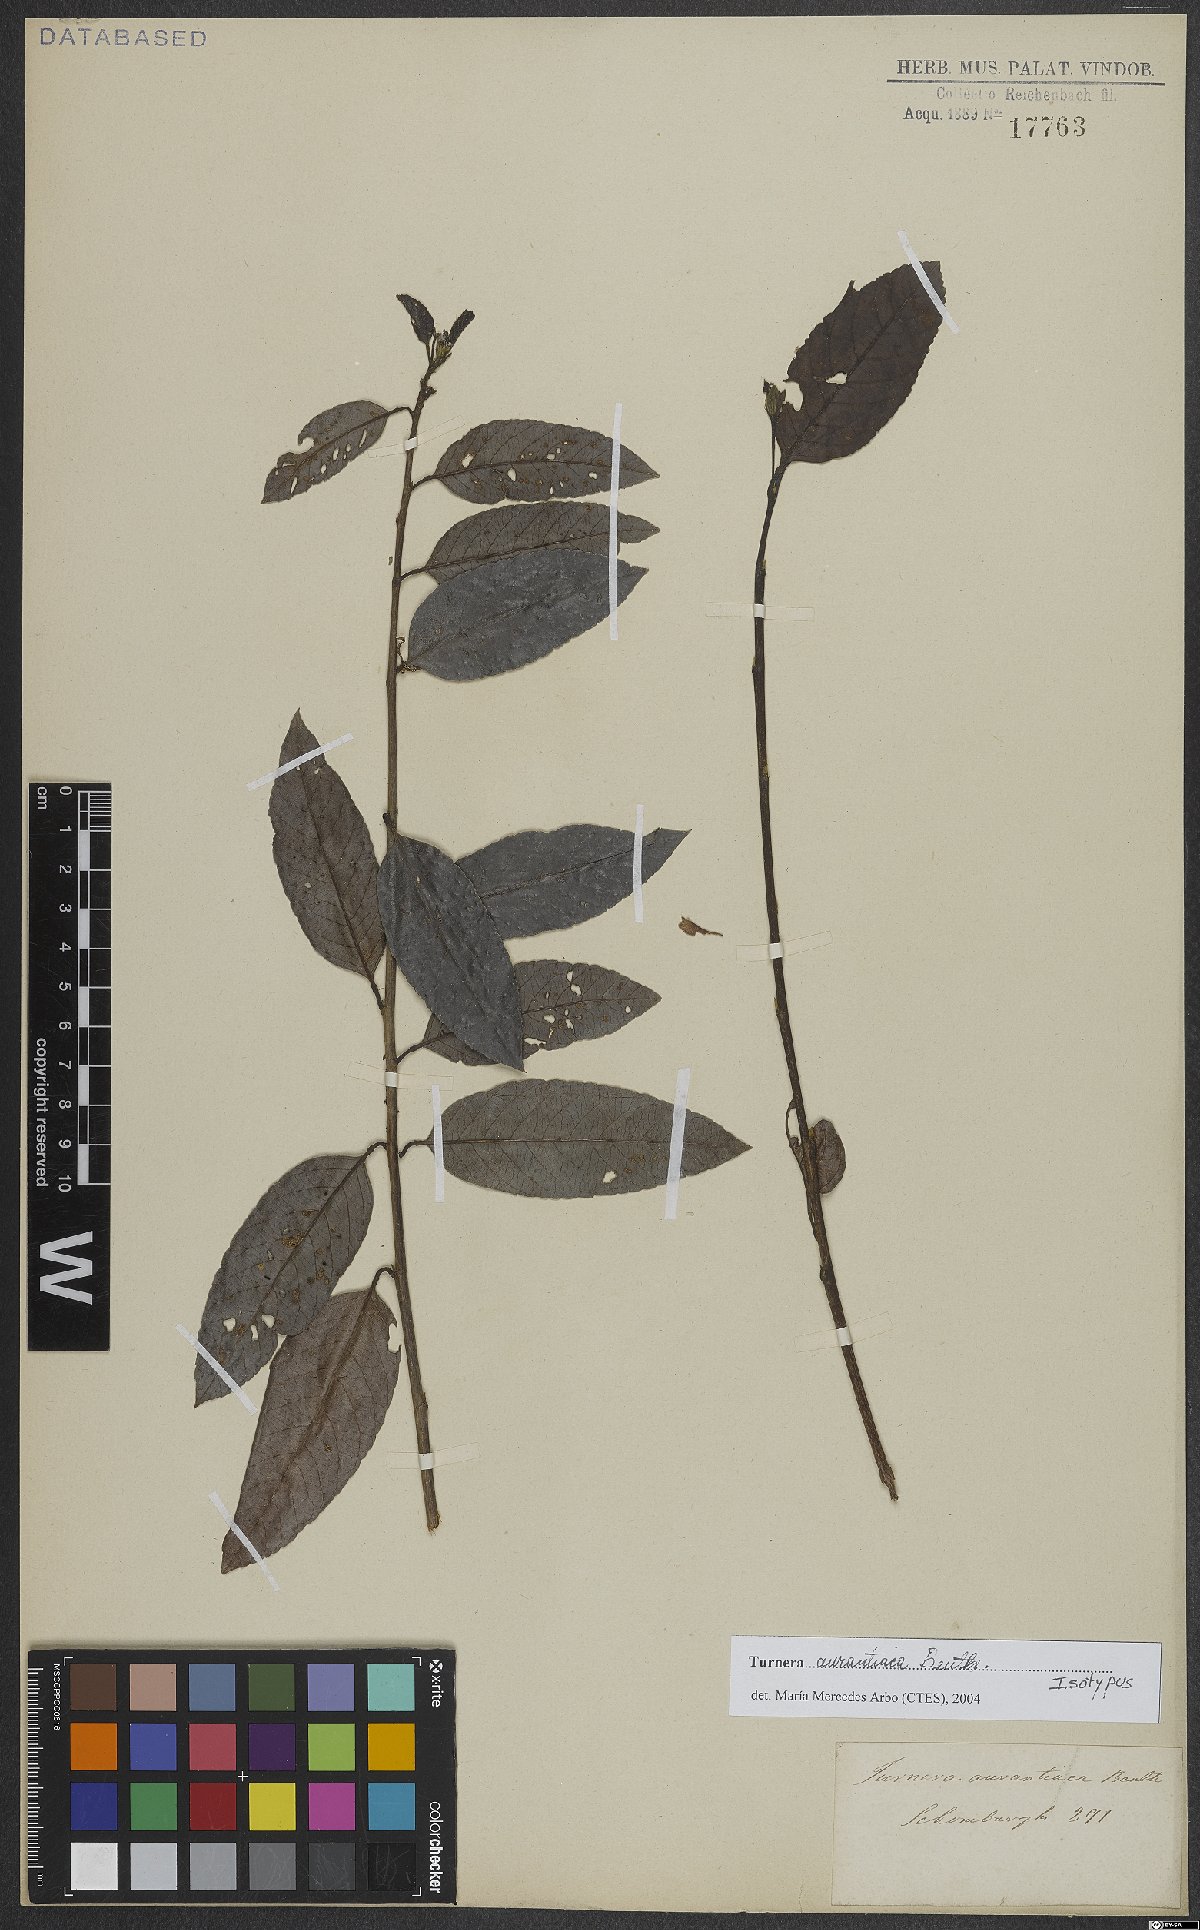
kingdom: Plantae
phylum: Tracheophyta
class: Magnoliopsida
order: Malpighiales
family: Turneraceae
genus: Turnera
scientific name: Turnera aurantiaca
